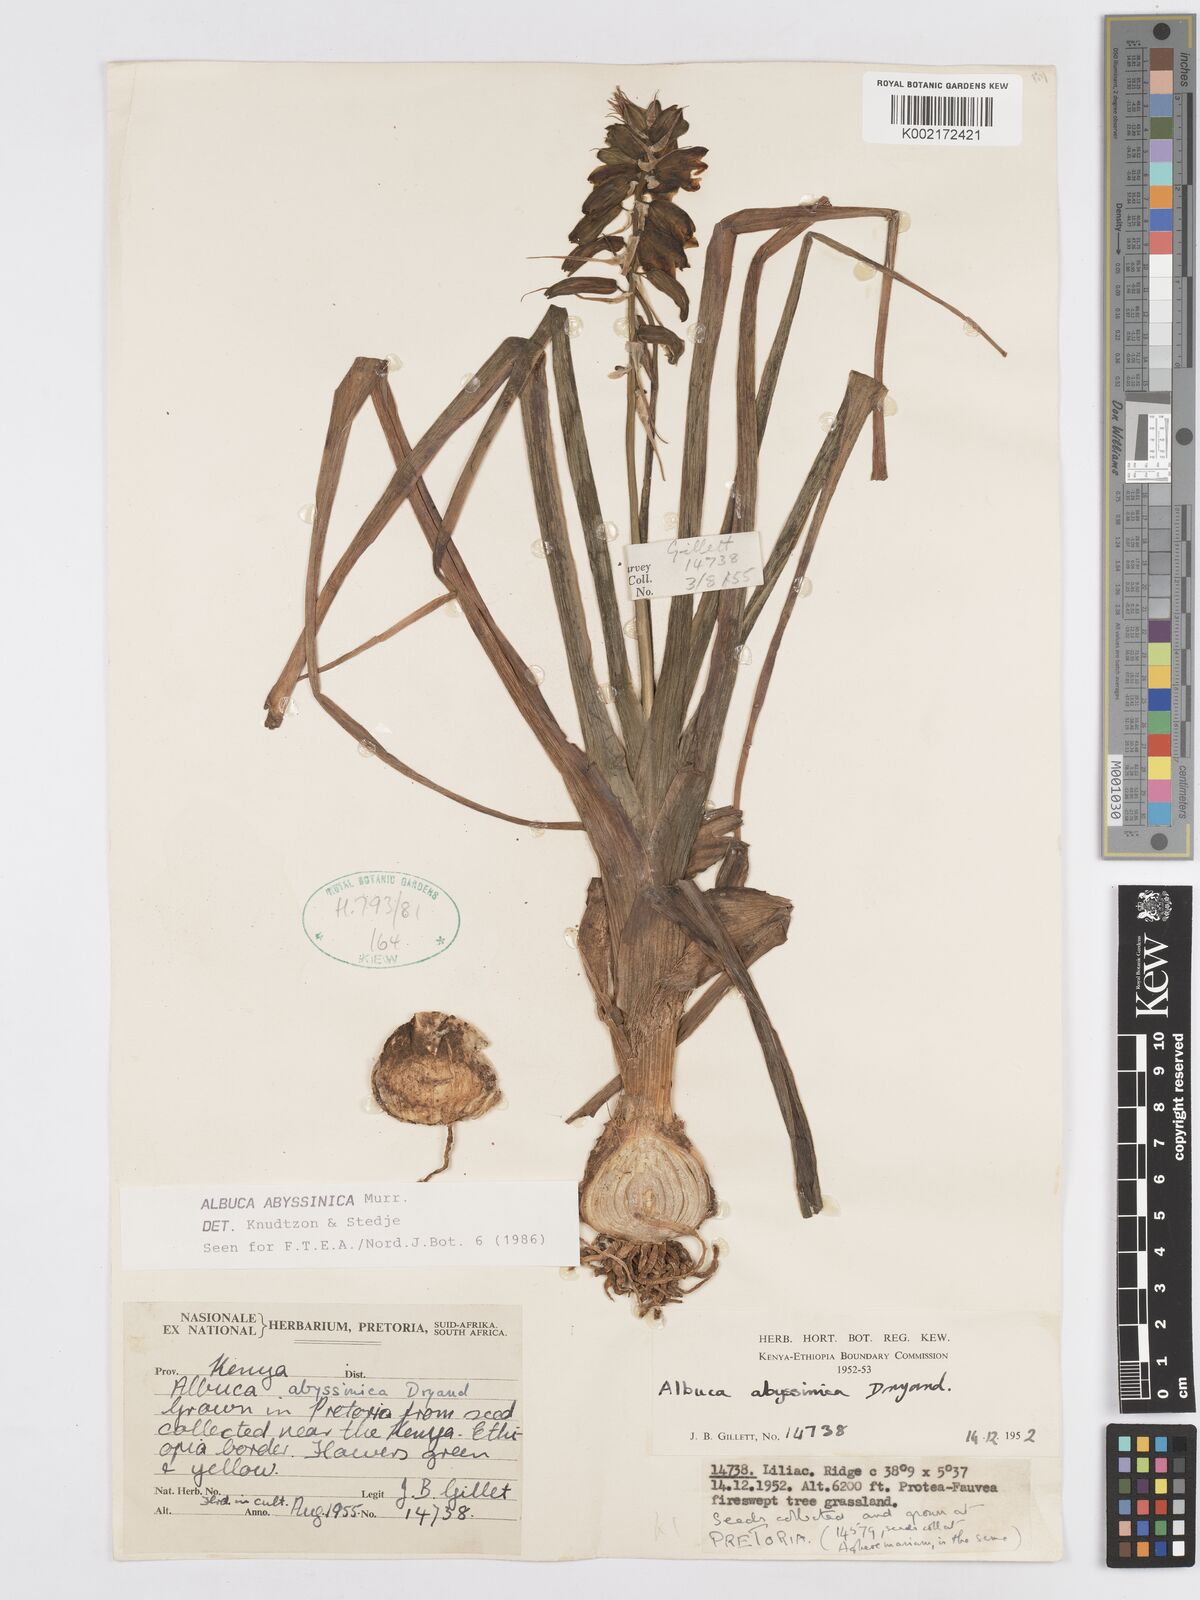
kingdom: Plantae
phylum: Tracheophyta
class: Liliopsida
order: Asparagales
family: Asparagaceae
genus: Albuca
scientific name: Albuca abyssinica
